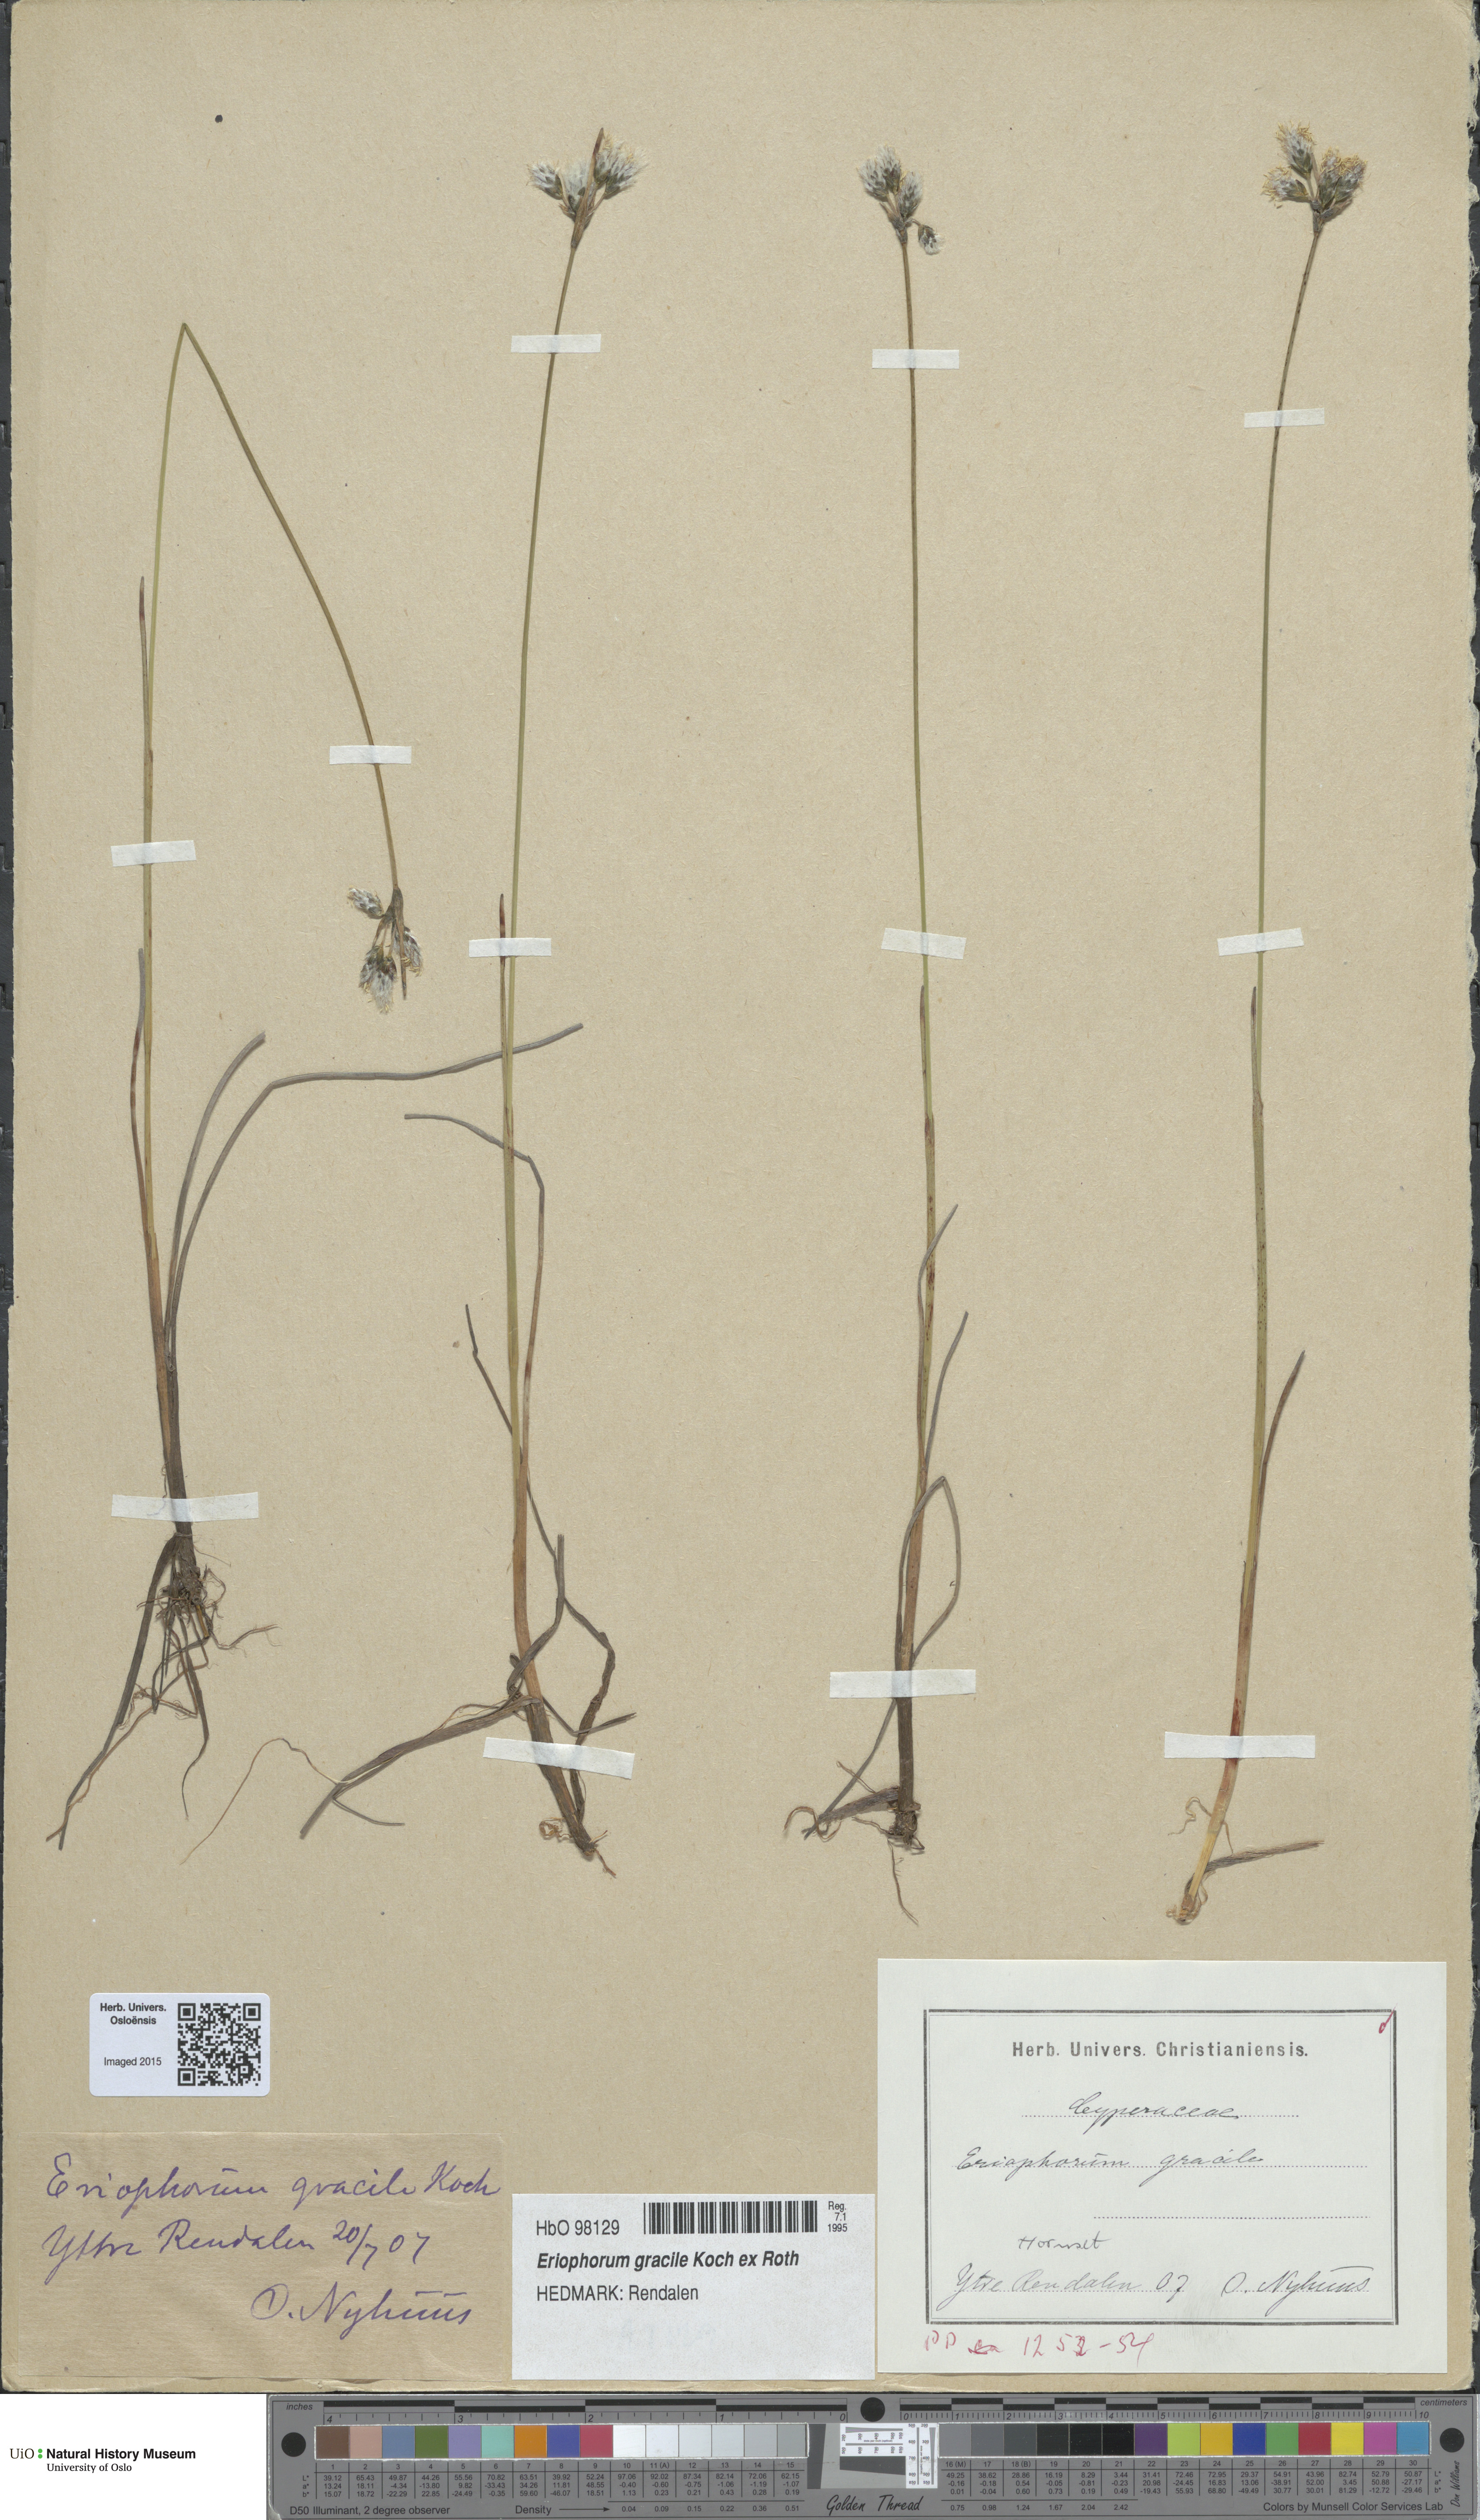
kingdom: Plantae
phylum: Tracheophyta
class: Liliopsida
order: Poales
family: Cyperaceae
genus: Eriophorum
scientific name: Eriophorum gracile
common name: Slender cottongrass
